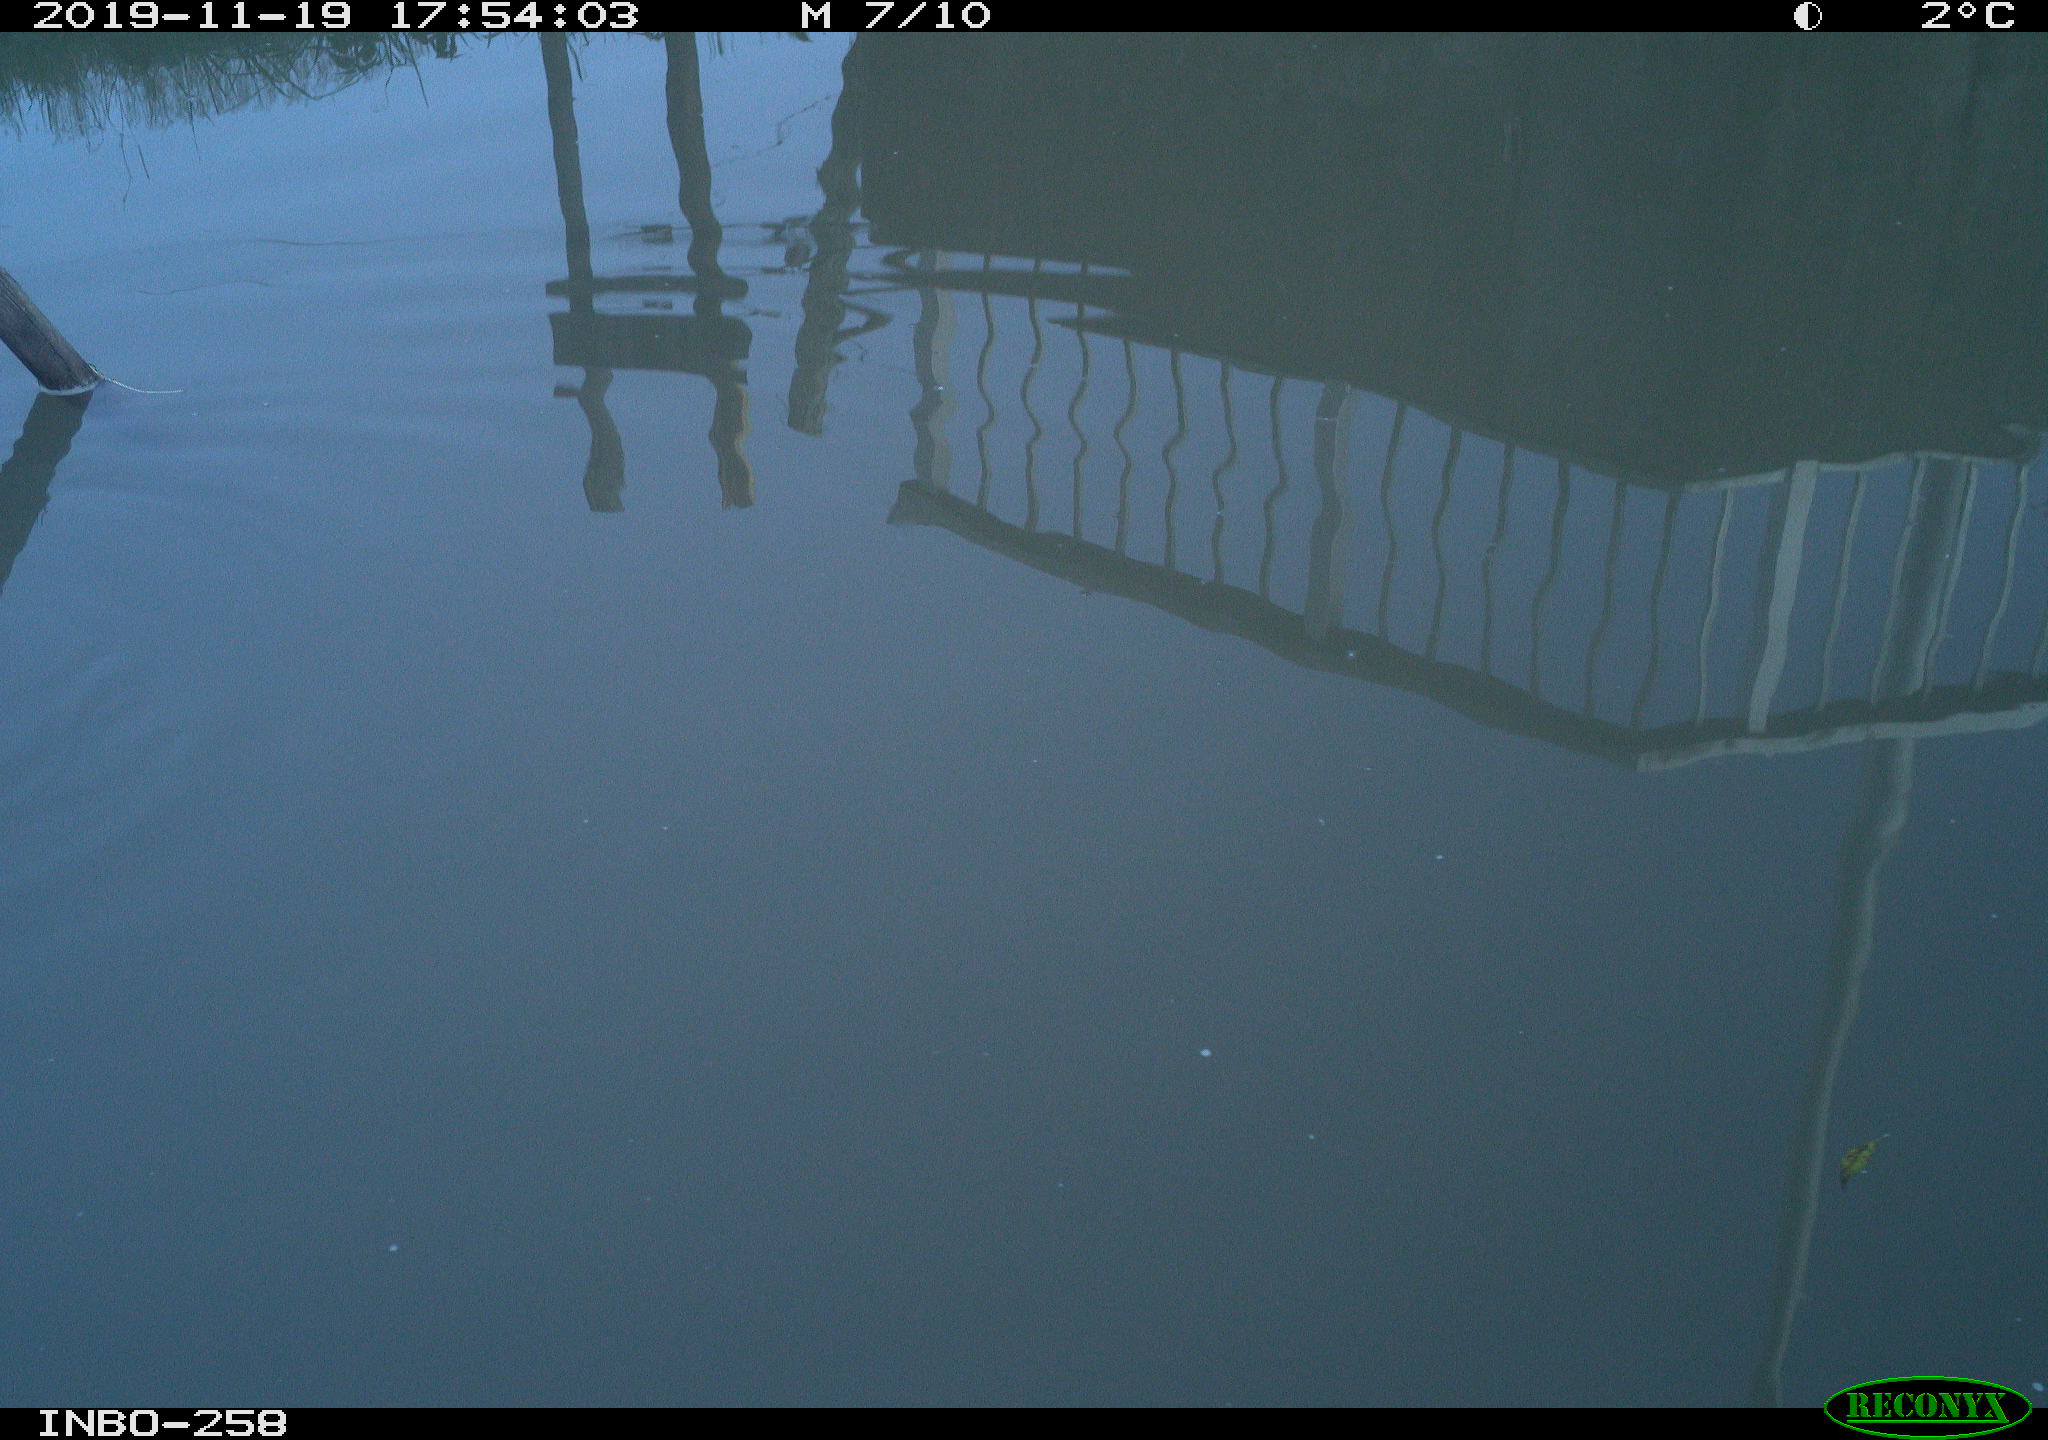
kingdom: Animalia
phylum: Chordata
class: Aves
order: Gruiformes
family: Rallidae
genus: Gallinula
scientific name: Gallinula chloropus
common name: Common moorhen
